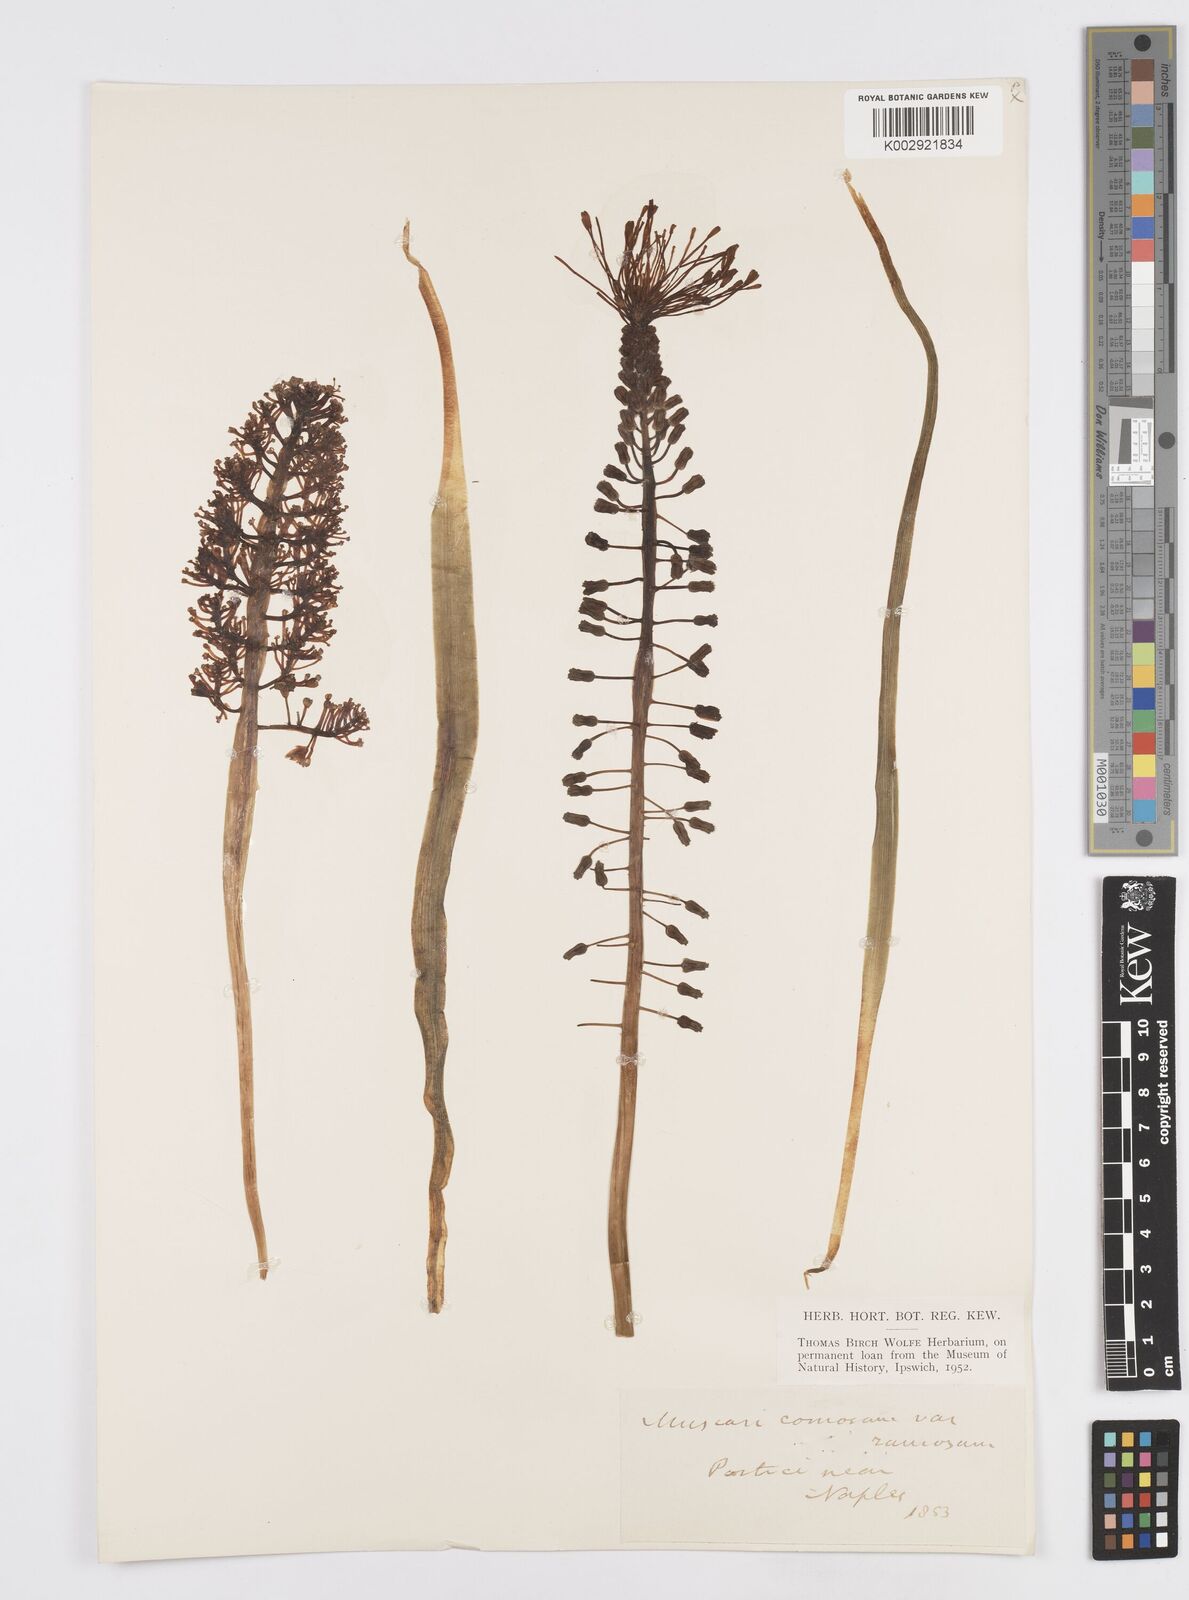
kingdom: Plantae
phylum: Tracheophyta
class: Liliopsida
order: Asparagales
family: Asparagaceae
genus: Muscari
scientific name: Muscari comosum
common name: Tassel hyacinth
